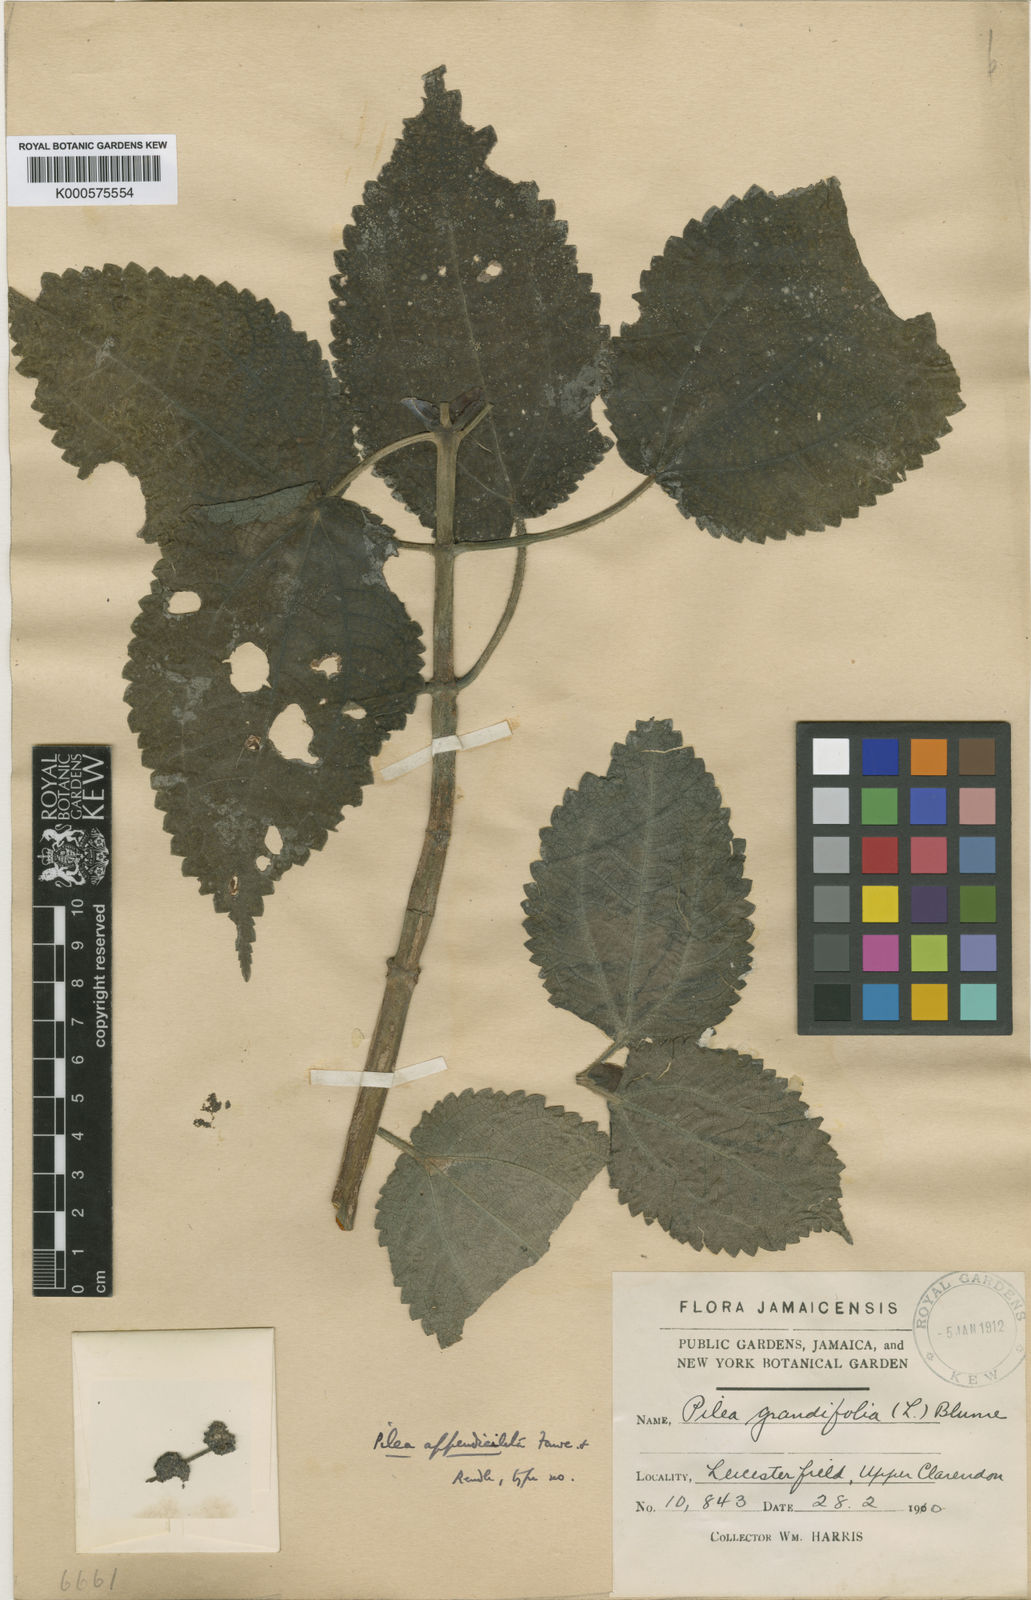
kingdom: Plantae
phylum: Tracheophyta
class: Magnoliopsida
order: Rosales
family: Urticaceae
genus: Pilea
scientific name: Pilea
